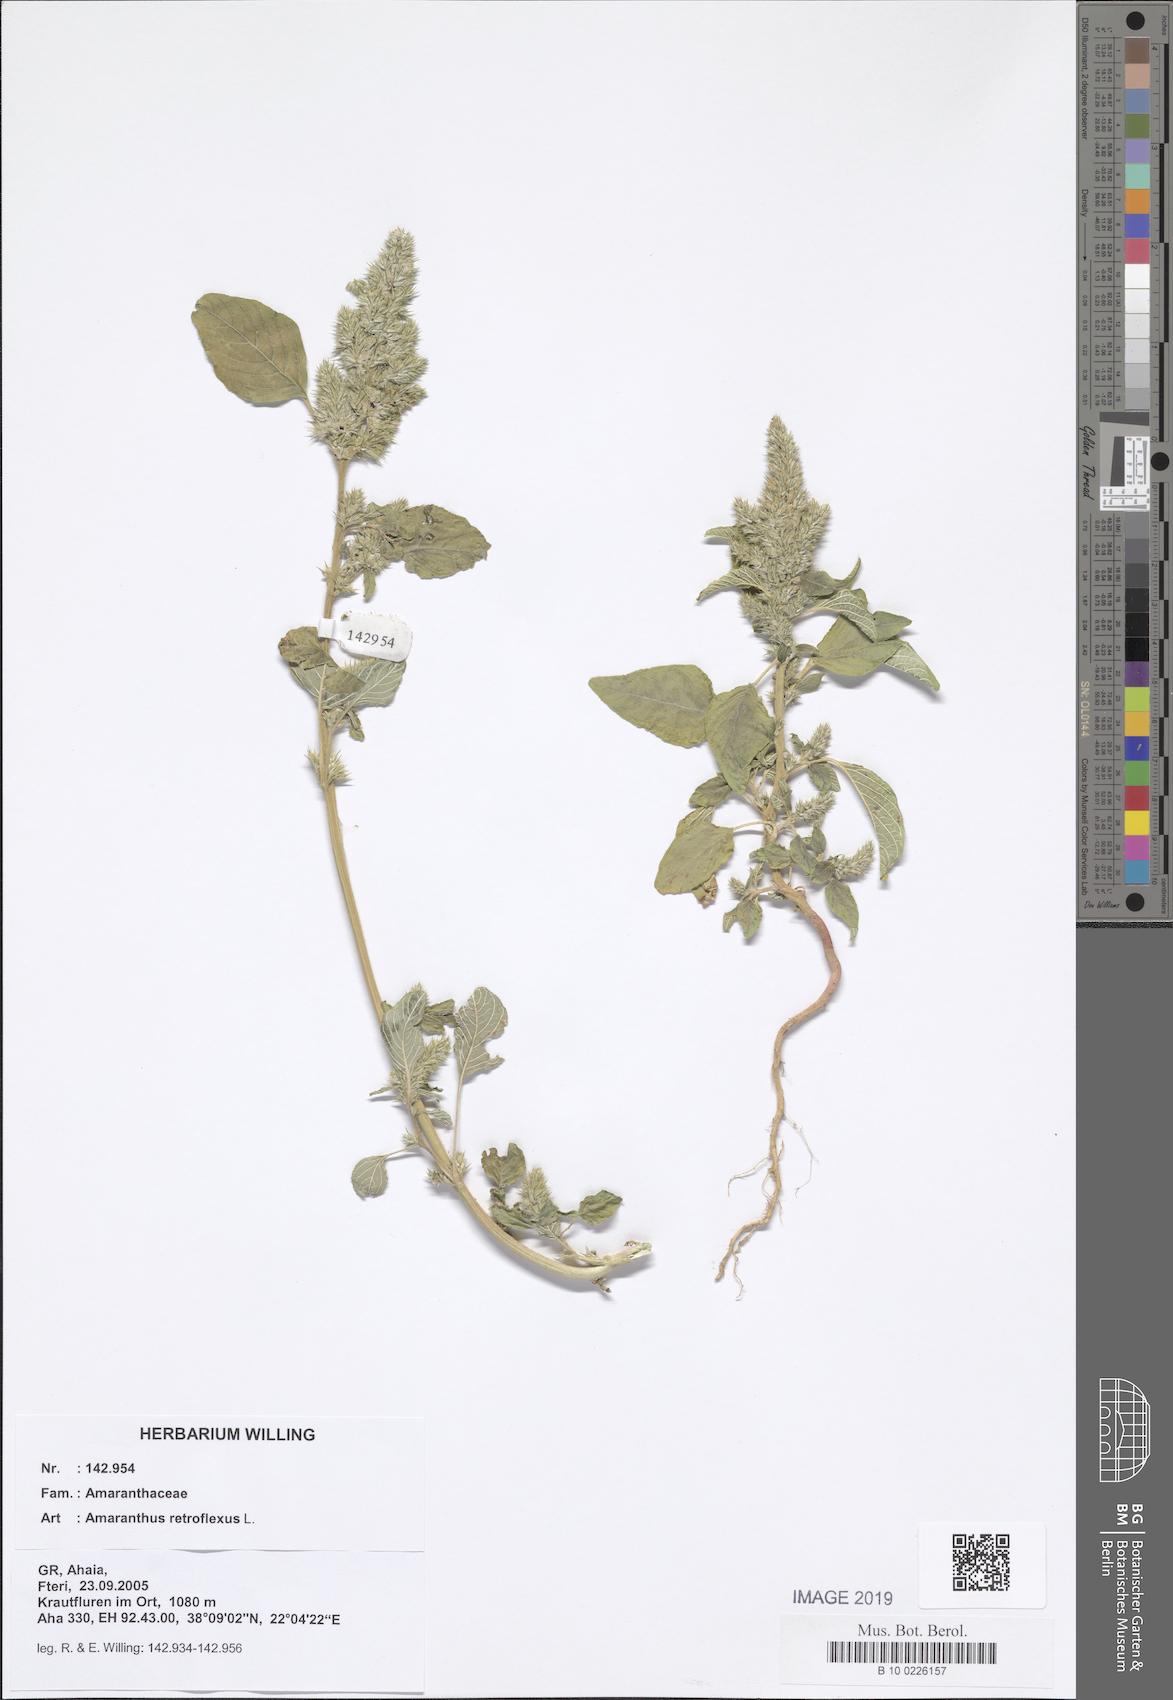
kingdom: Plantae
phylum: Tracheophyta
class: Magnoliopsida
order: Caryophyllales
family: Amaranthaceae
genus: Amaranthus
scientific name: Amaranthus retroflexus
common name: Redroot amaranth
